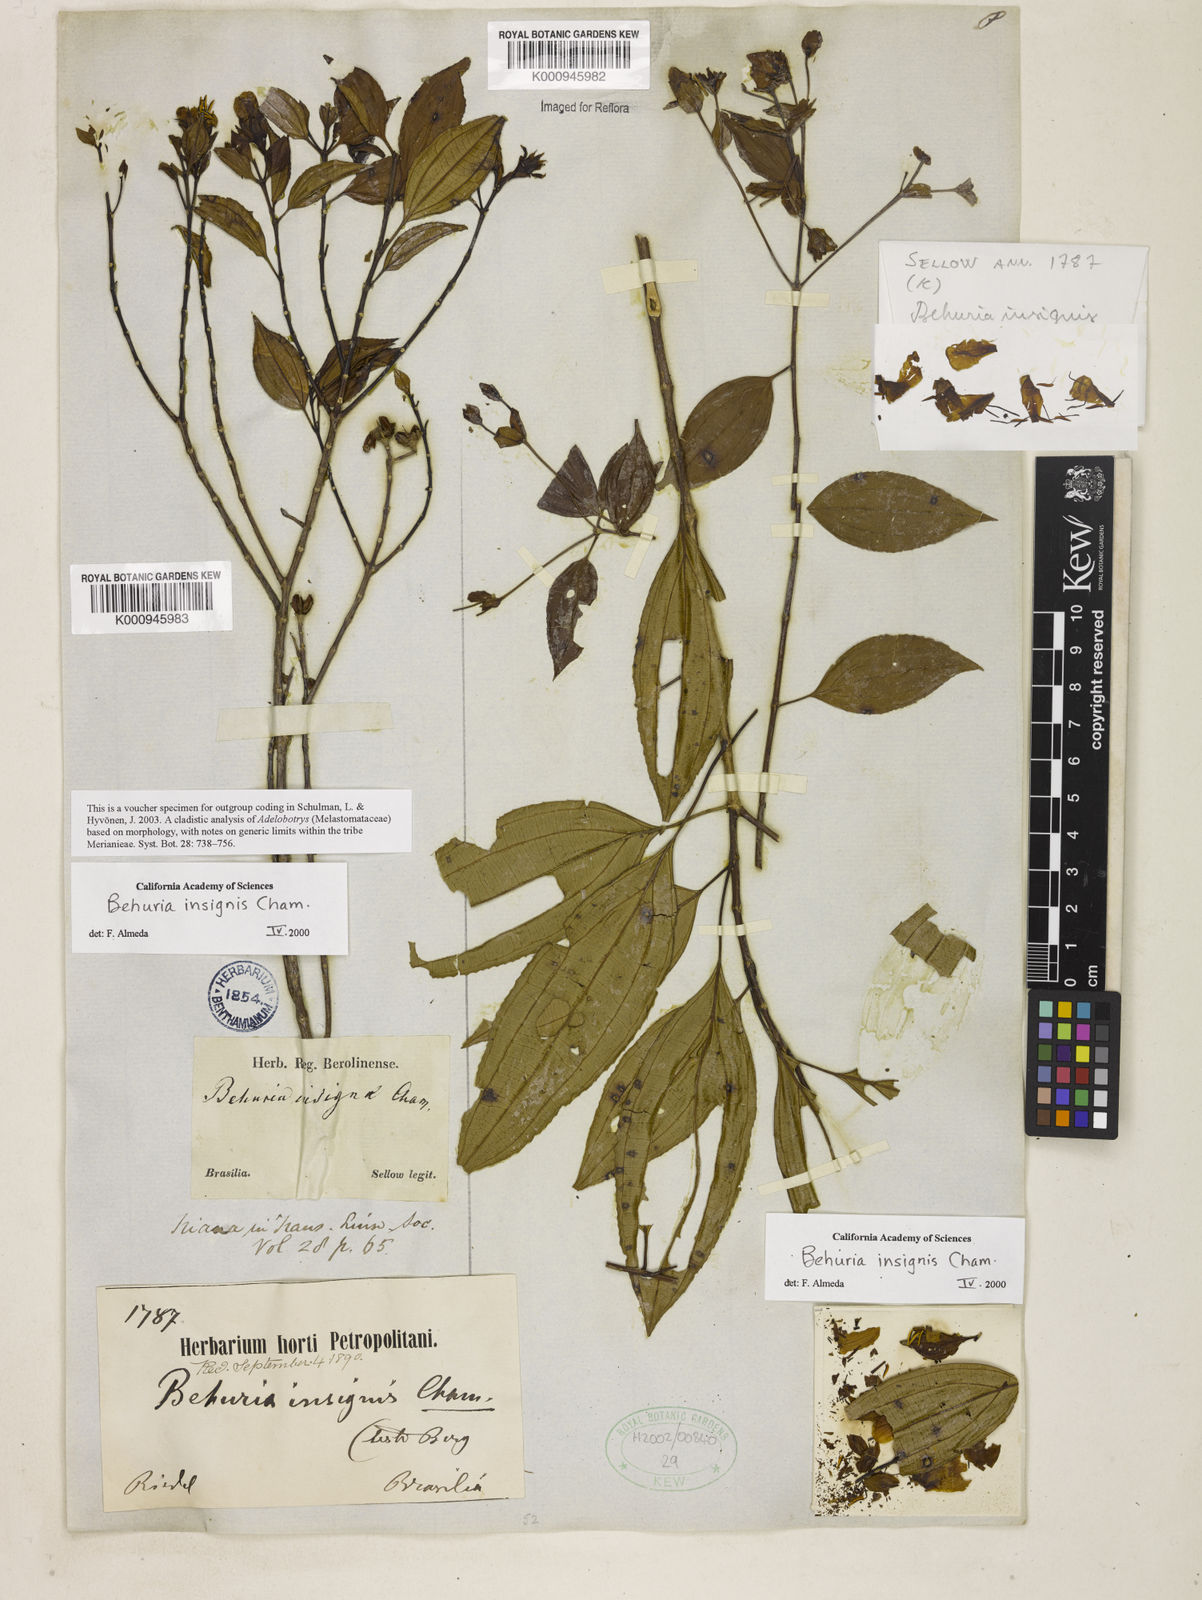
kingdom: Plantae
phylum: Tracheophyta
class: Magnoliopsida
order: Myrtales
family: Melastomataceae
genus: Huberia
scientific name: Huberia insignis
